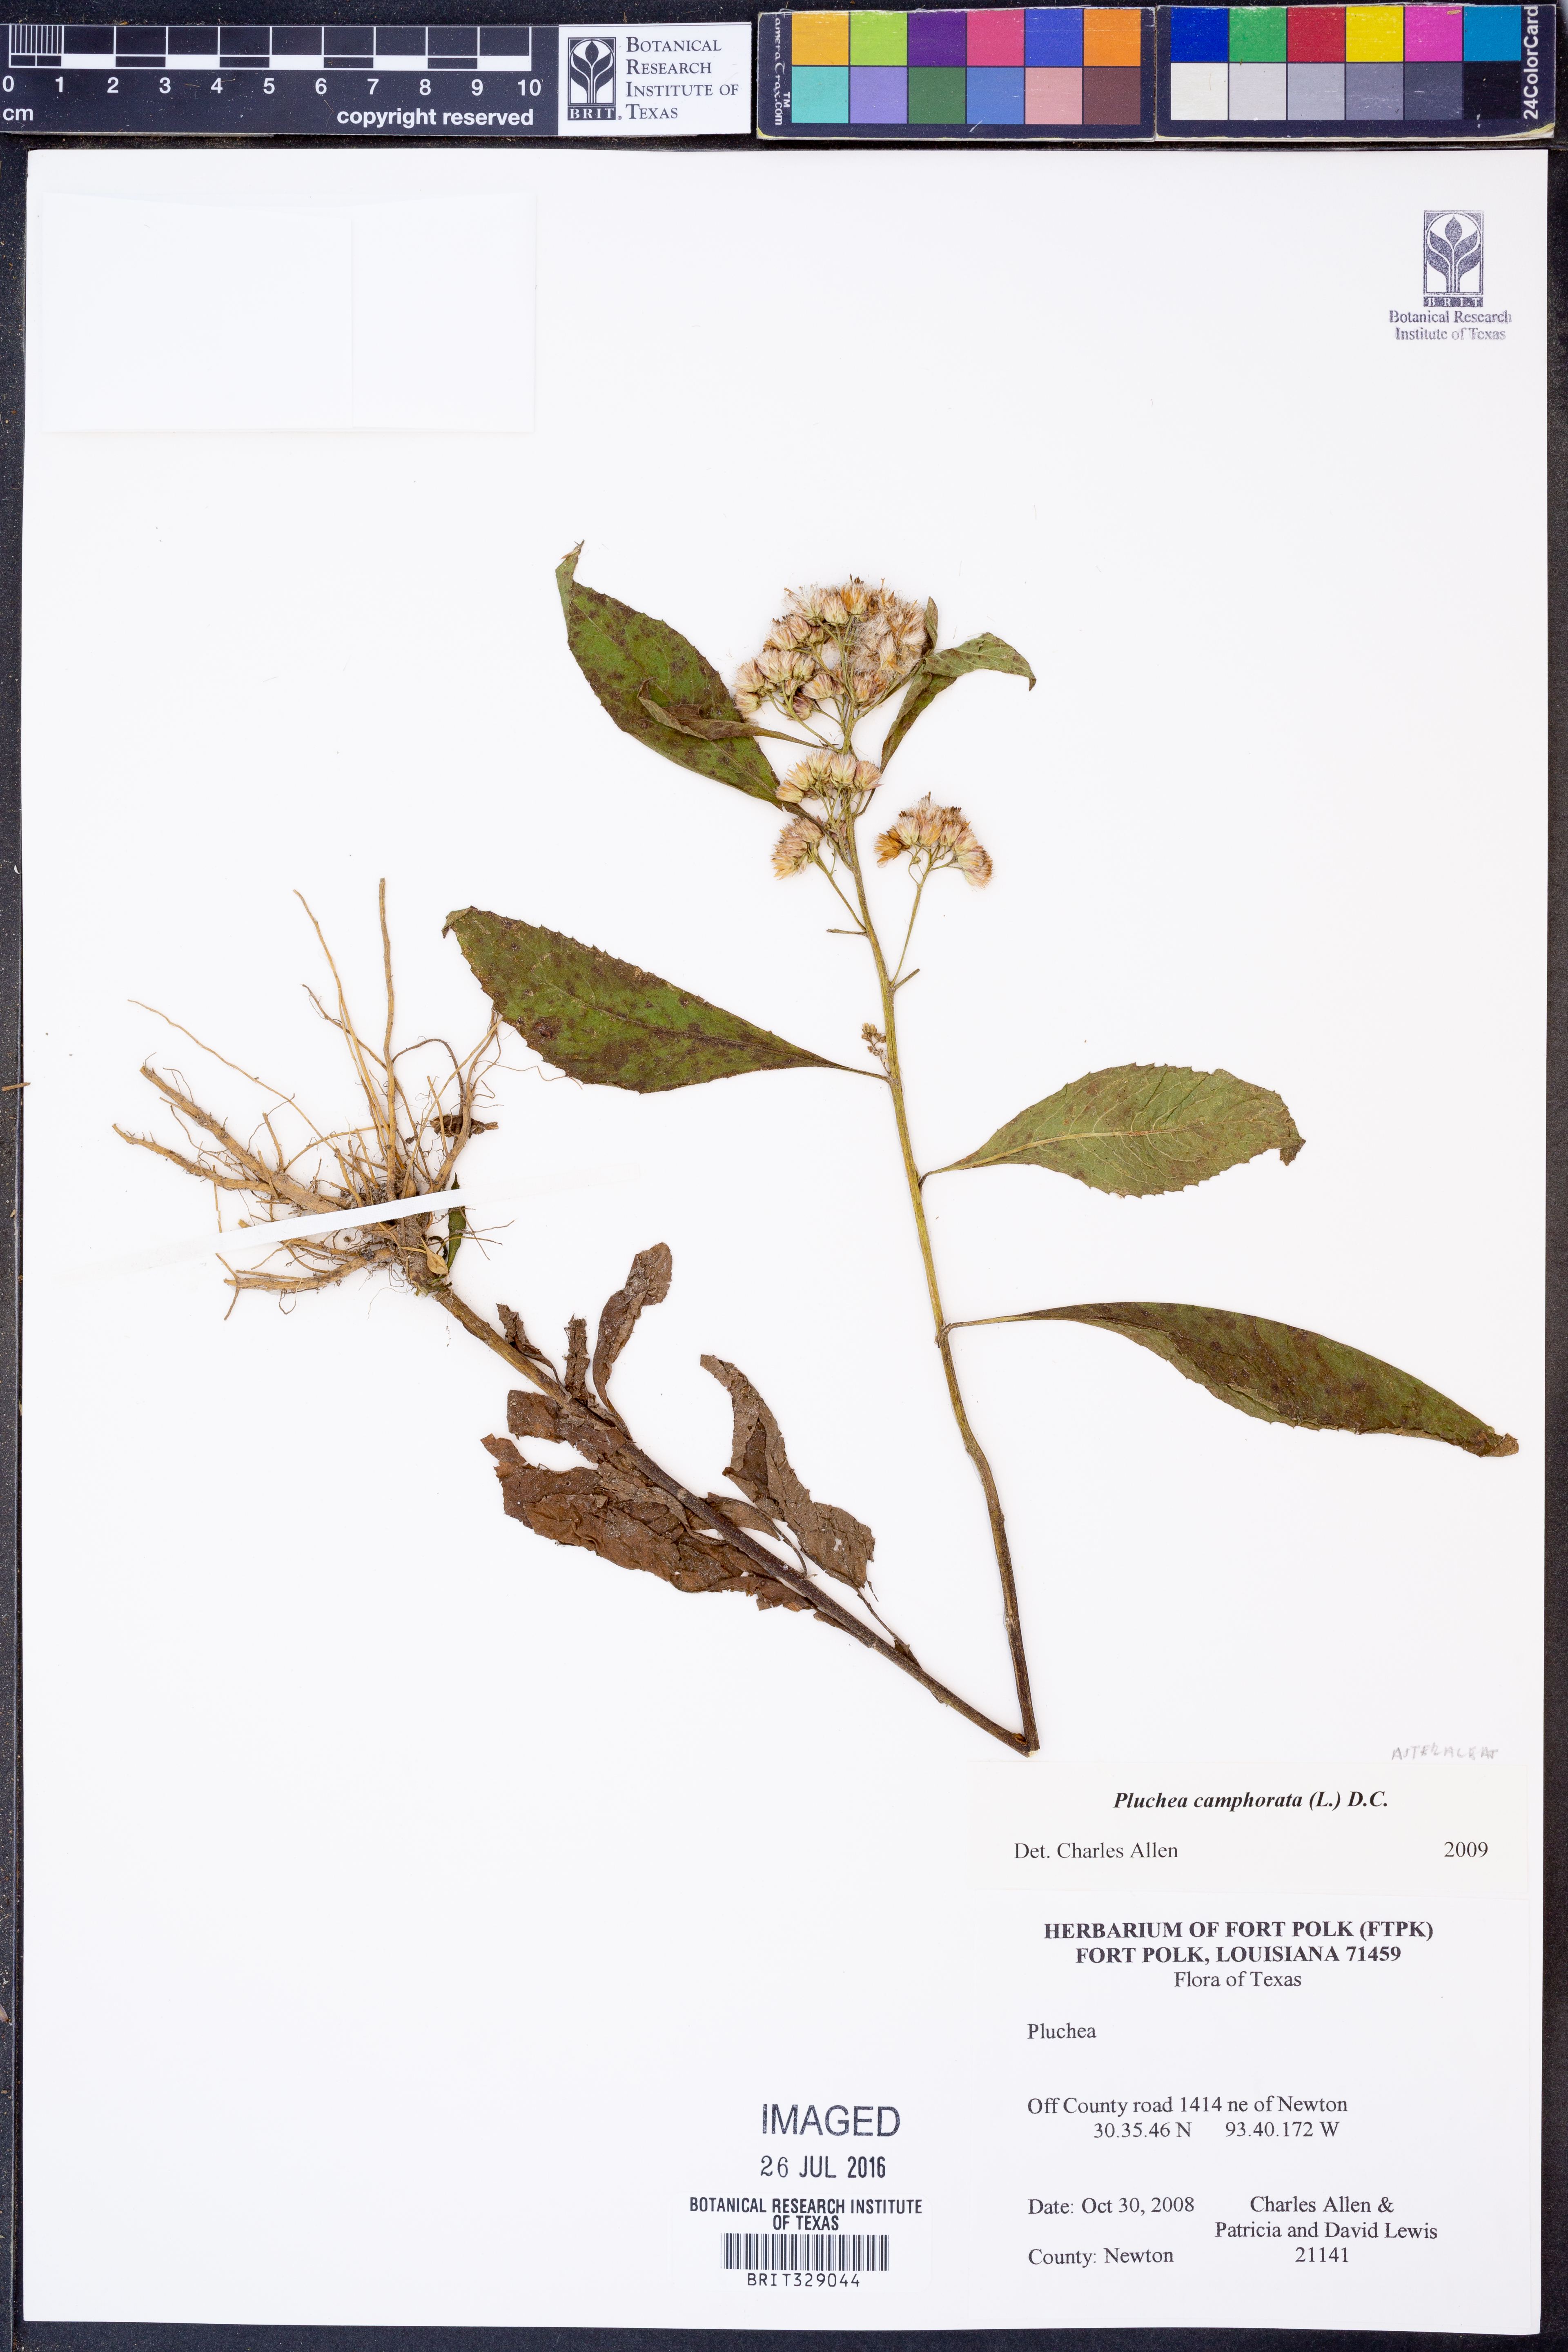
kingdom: Plantae
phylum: Tracheophyta
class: Magnoliopsida
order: Asterales
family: Asteraceae
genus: Pluchea
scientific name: Pluchea camphorata
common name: Camphor pluchea
